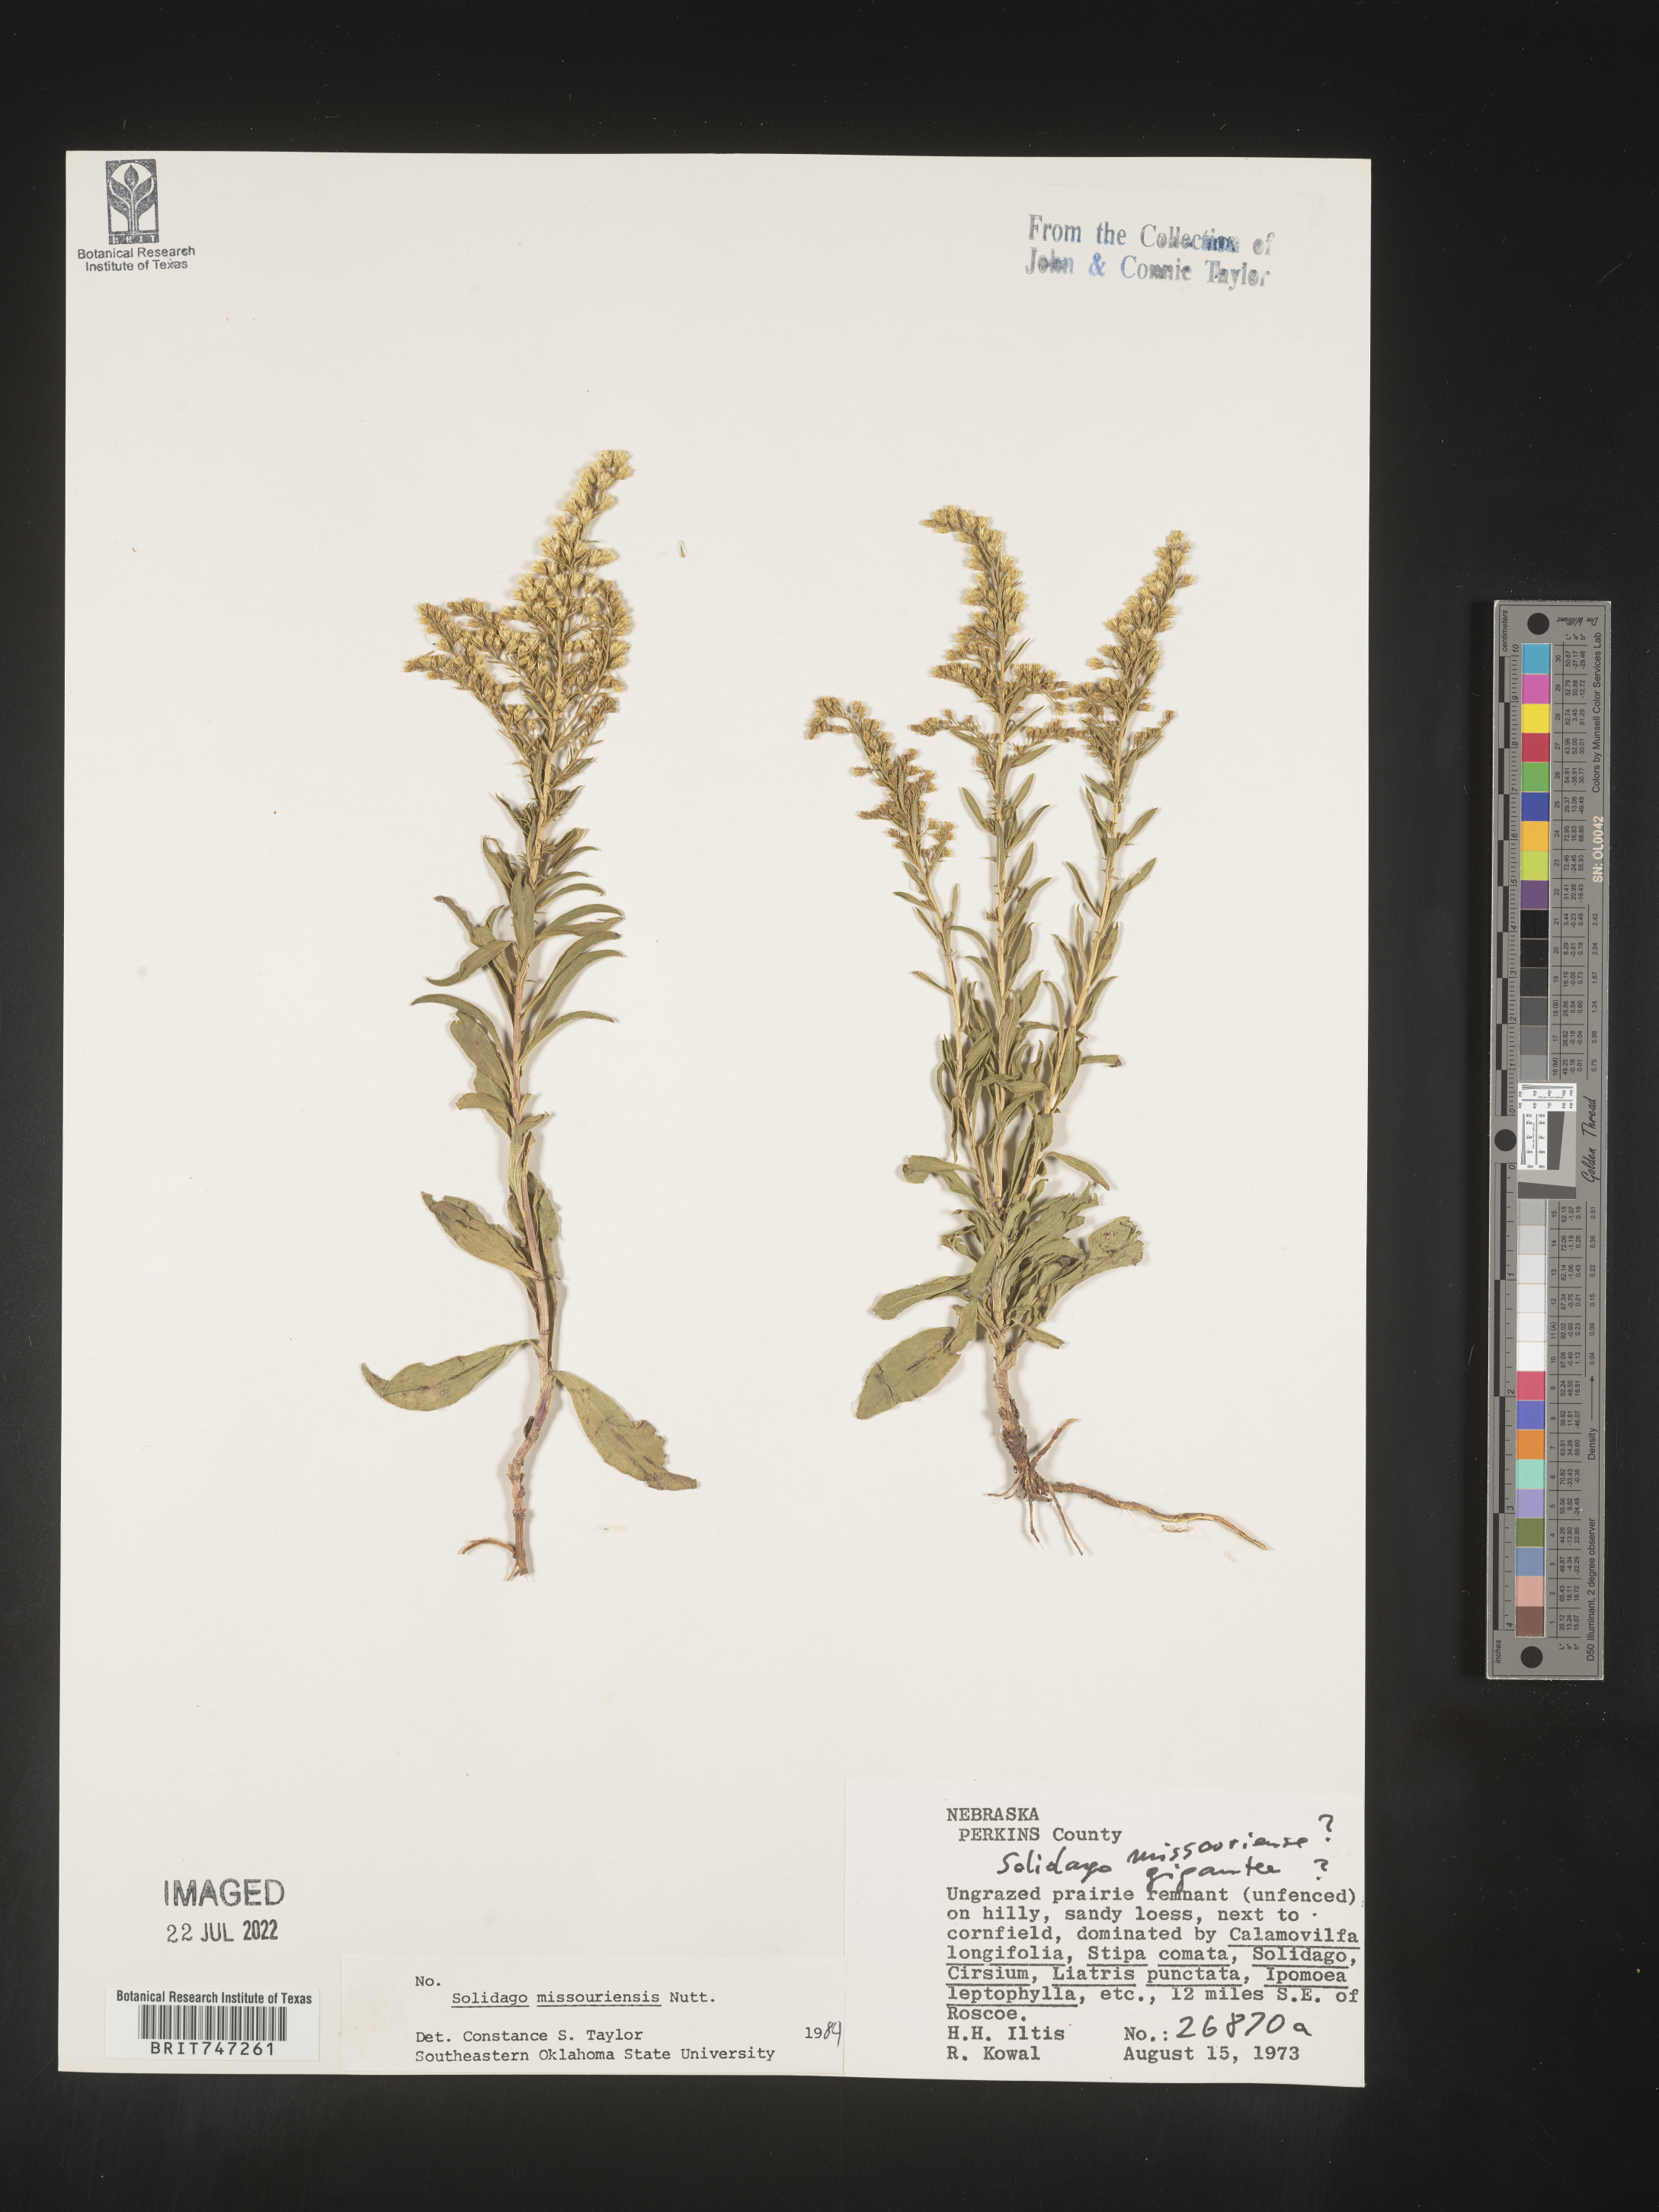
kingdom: Plantae
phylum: Tracheophyta
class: Magnoliopsida
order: Asterales
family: Asteraceae
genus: Solidago
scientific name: Solidago missouriensis
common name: Prairie goldenrod
